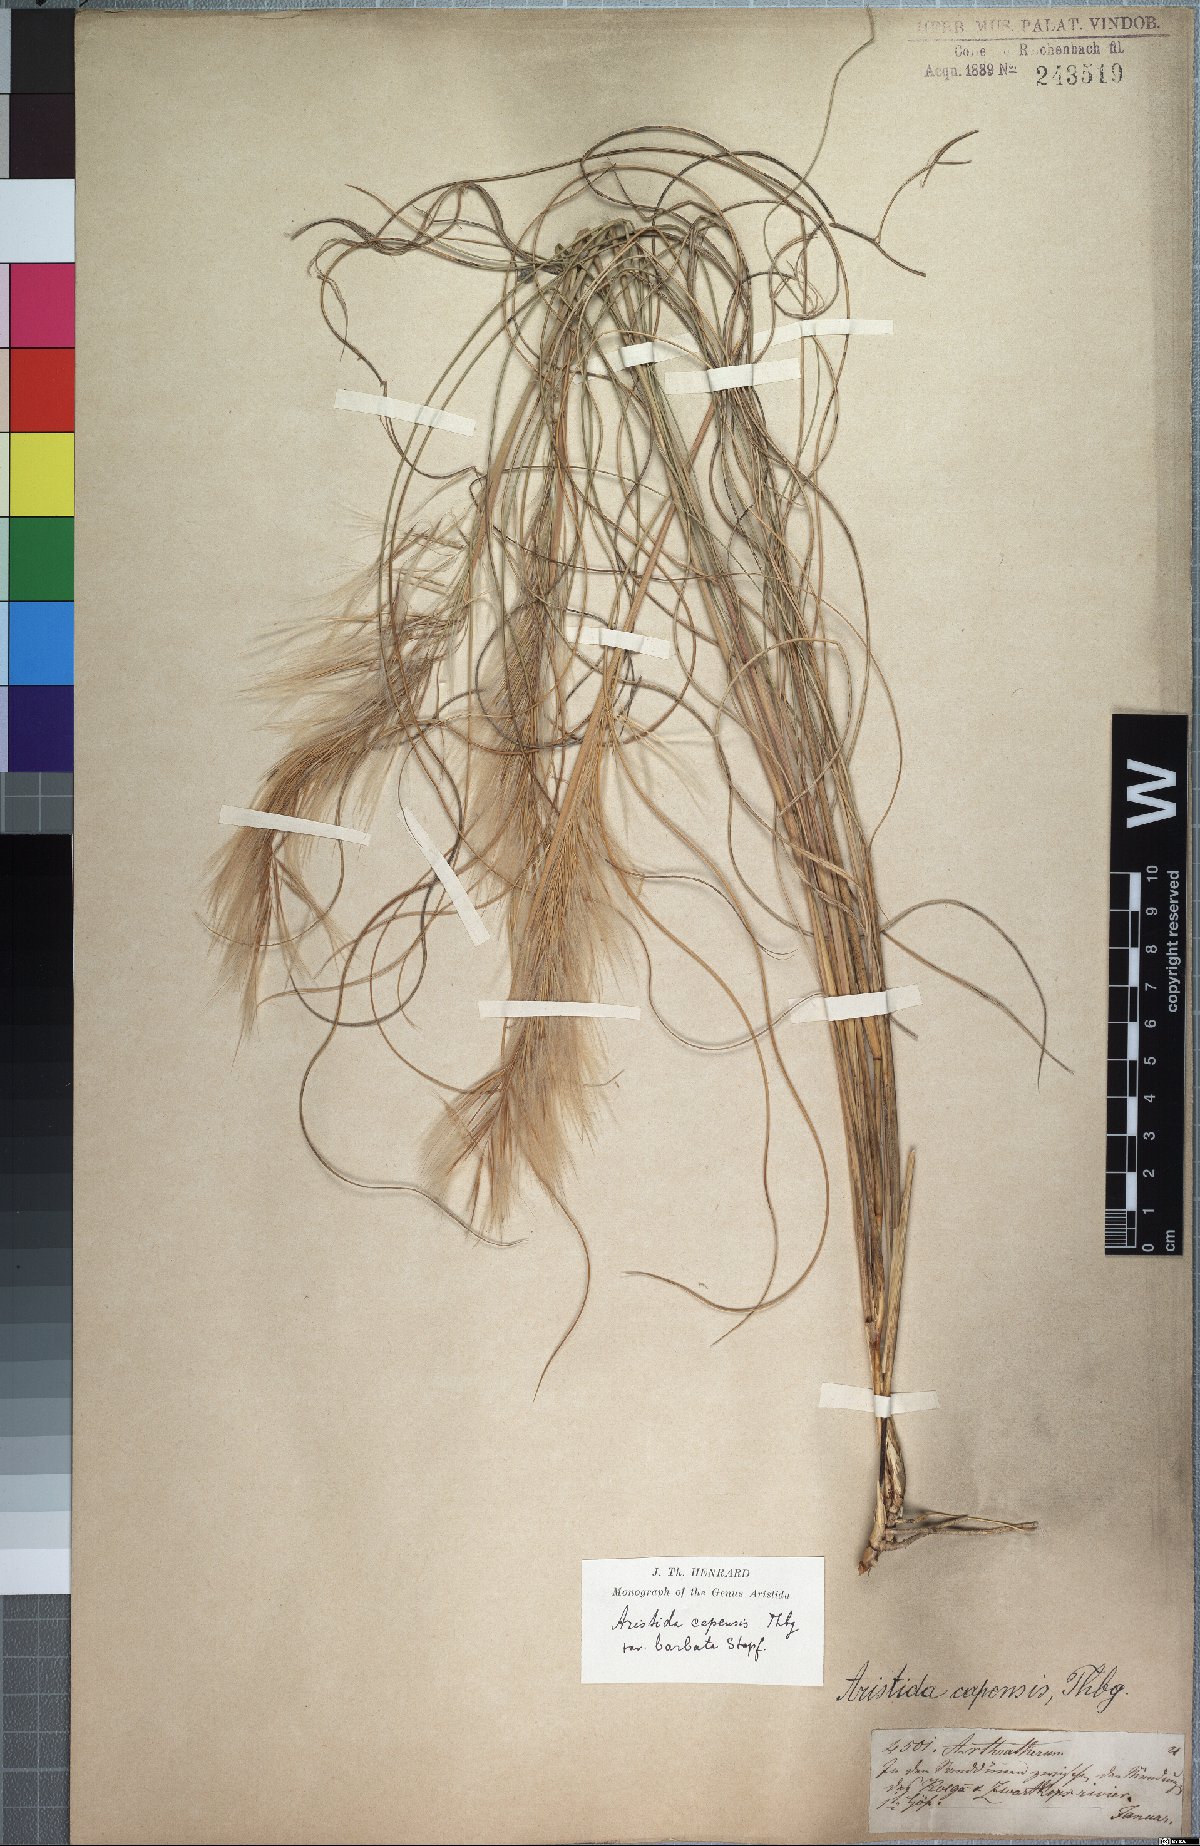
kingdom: Plantae
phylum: Tracheophyta
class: Liliopsida
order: Poales
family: Poaceae
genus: Stipagrostis
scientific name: Stipagrostis zeyheri
